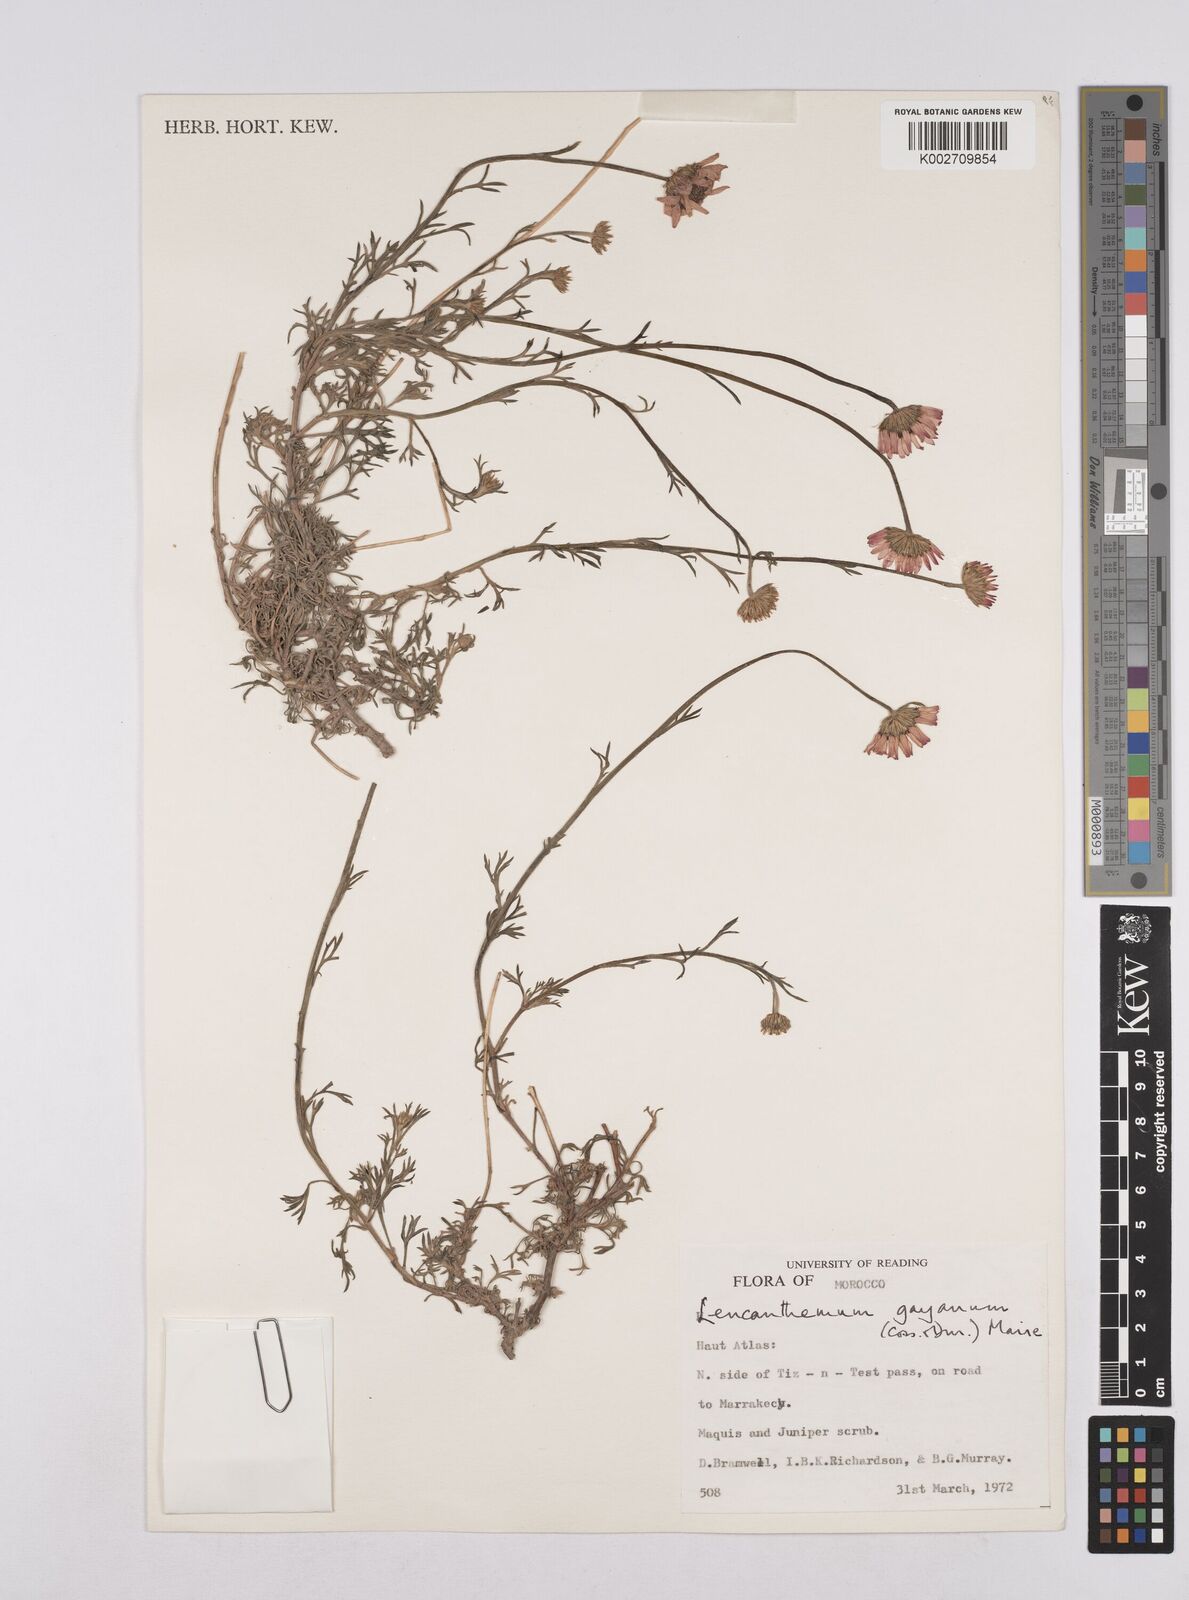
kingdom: Plantae
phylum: Tracheophyta
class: Magnoliopsida
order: Asterales
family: Asteraceae
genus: Rhodanthemum
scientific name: Rhodanthemum gayanum
